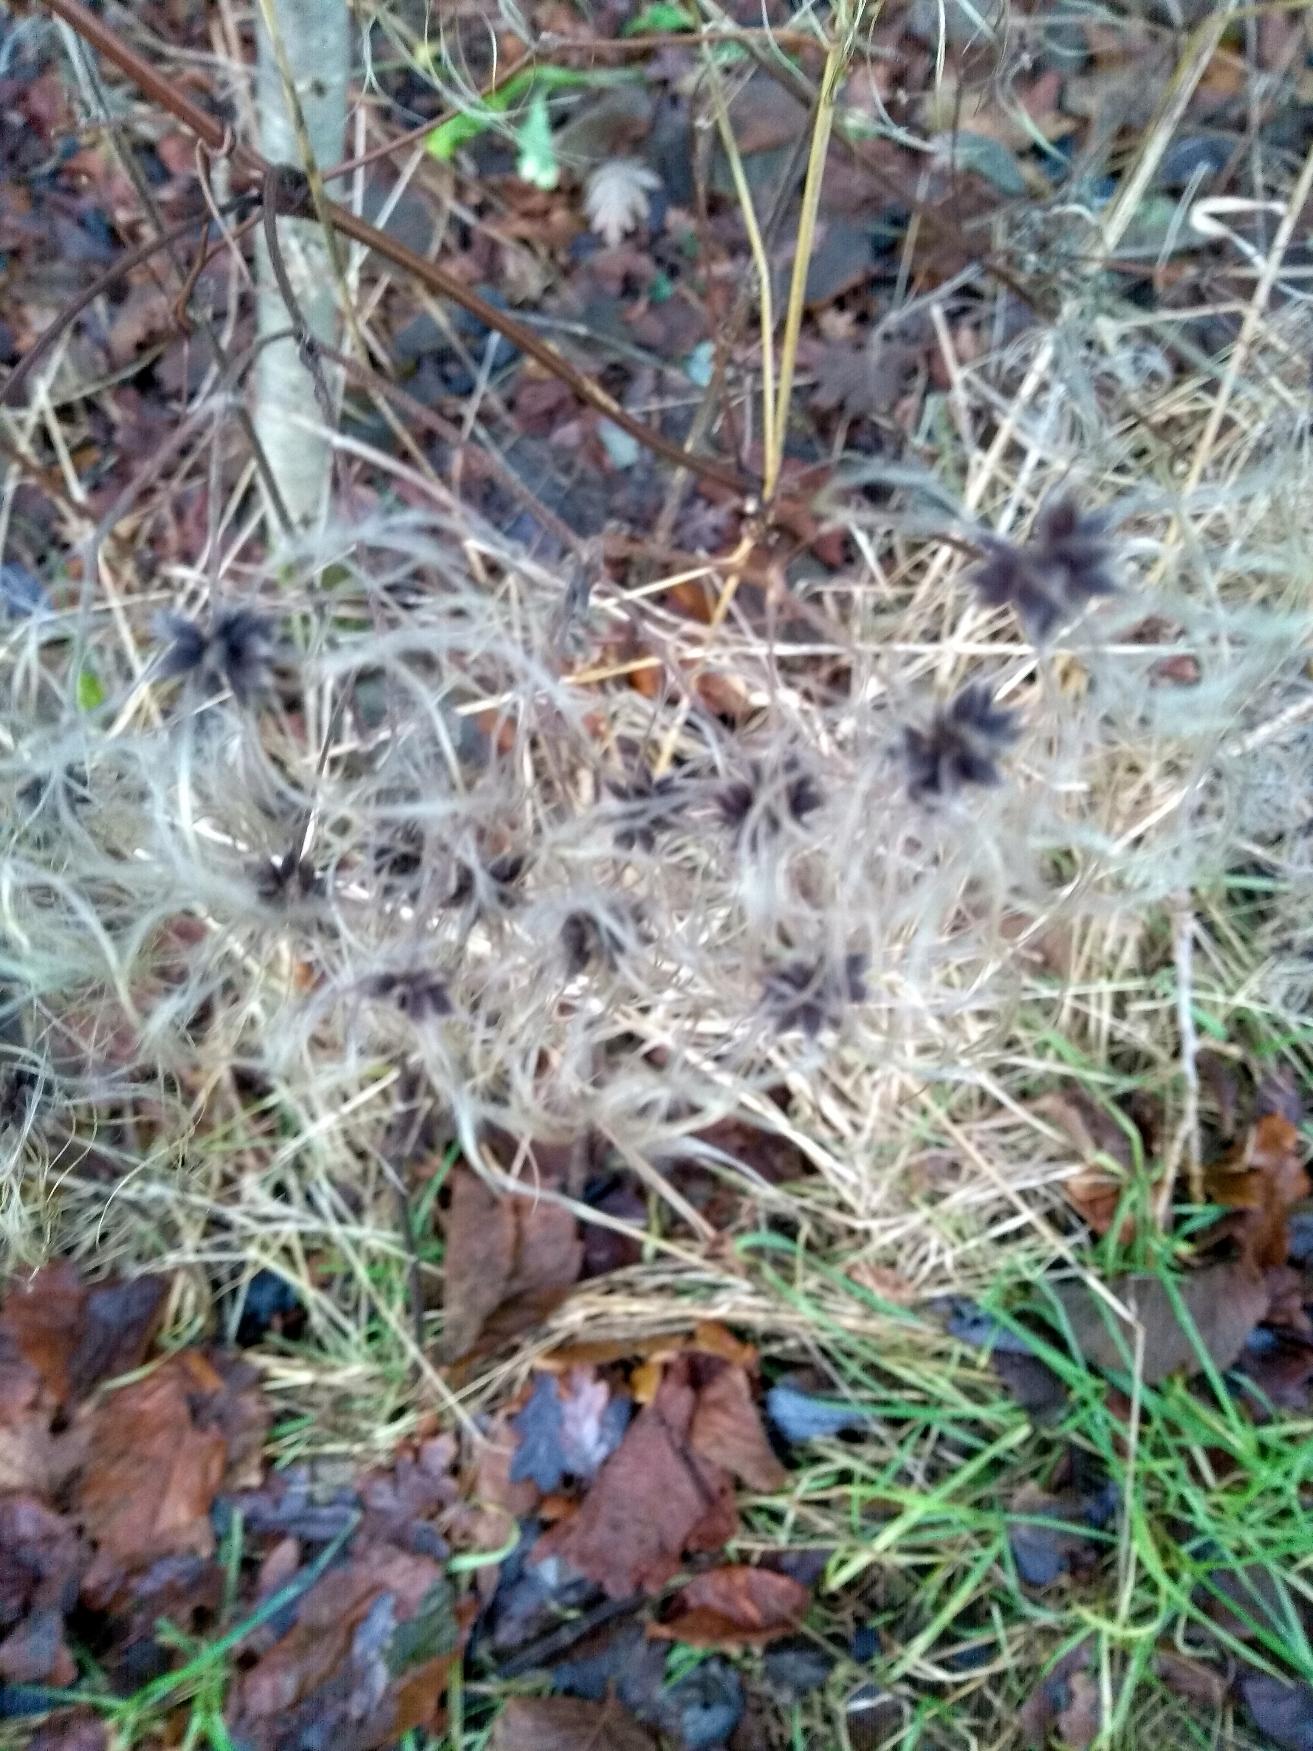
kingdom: Plantae
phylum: Tracheophyta
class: Magnoliopsida
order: Ranunculales
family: Ranunculaceae
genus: Clematis
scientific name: Clematis vitalba
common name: Skovranke
